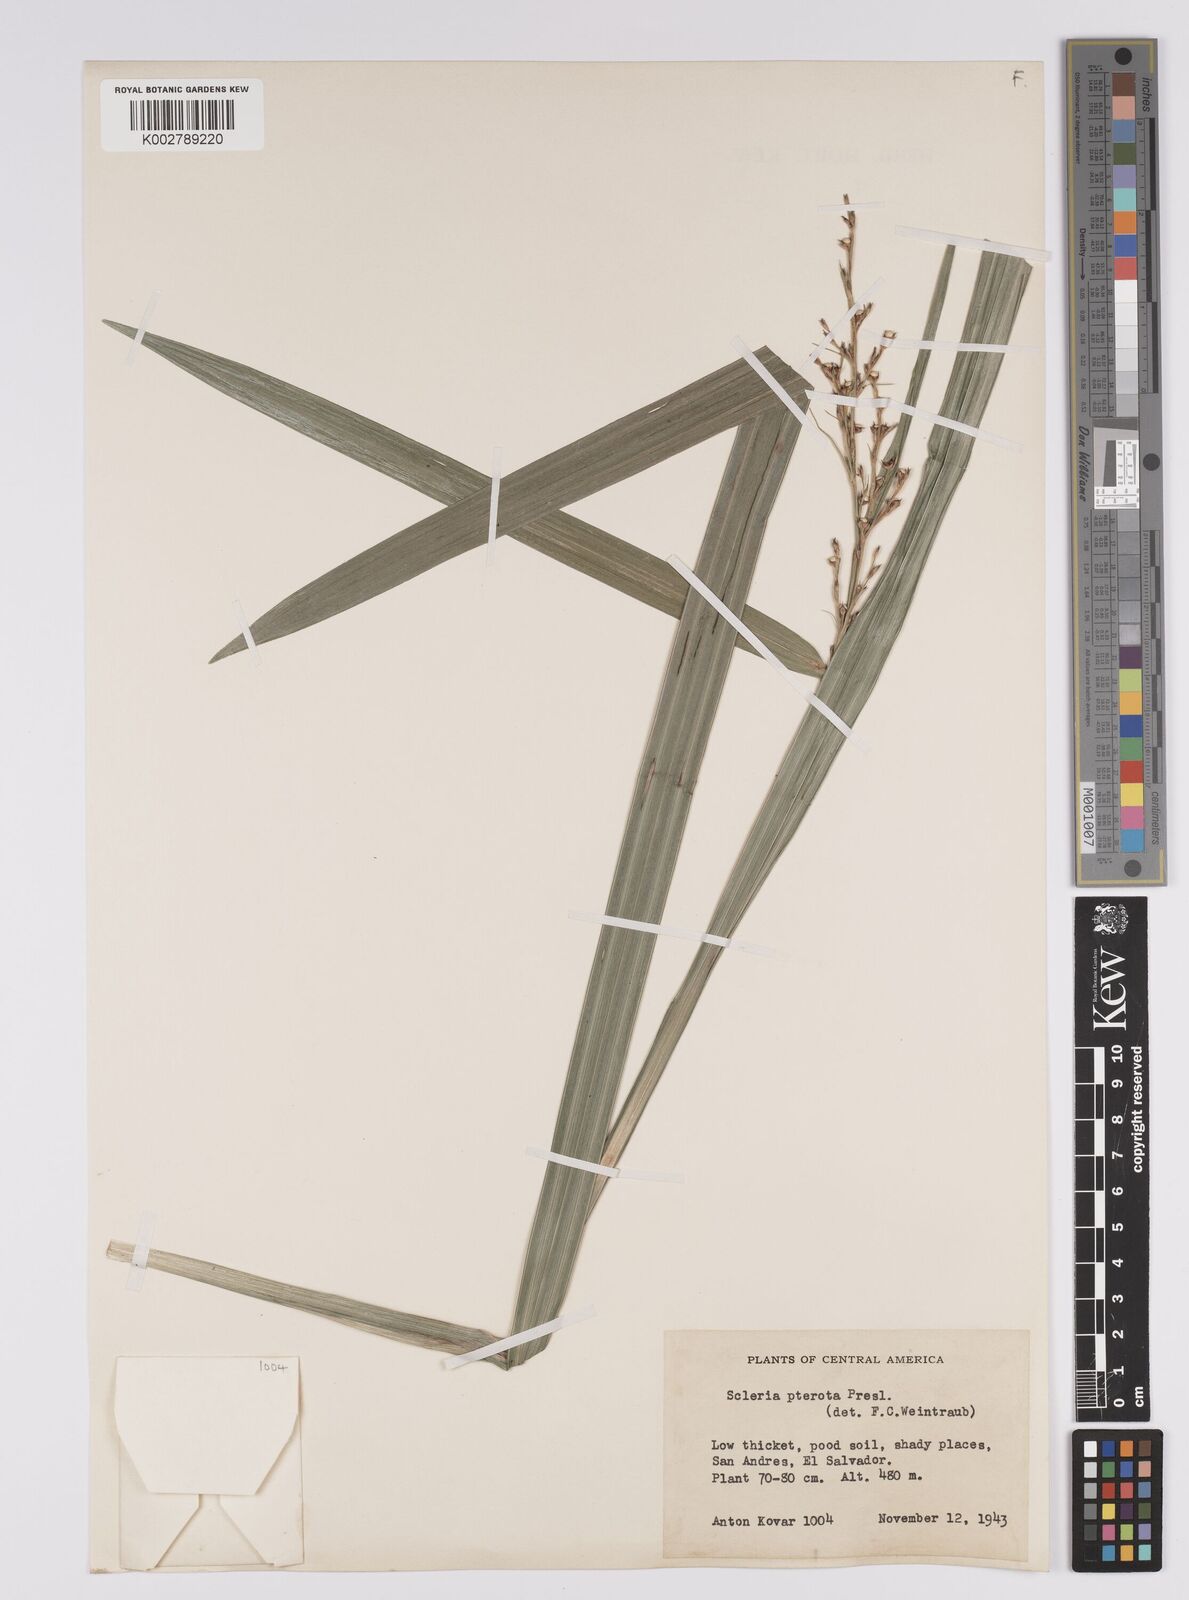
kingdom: Plantae
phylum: Tracheophyta
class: Liliopsida
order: Poales
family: Cyperaceae
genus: Scleria
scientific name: Scleria gaertneri
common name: Cortadera blanca
